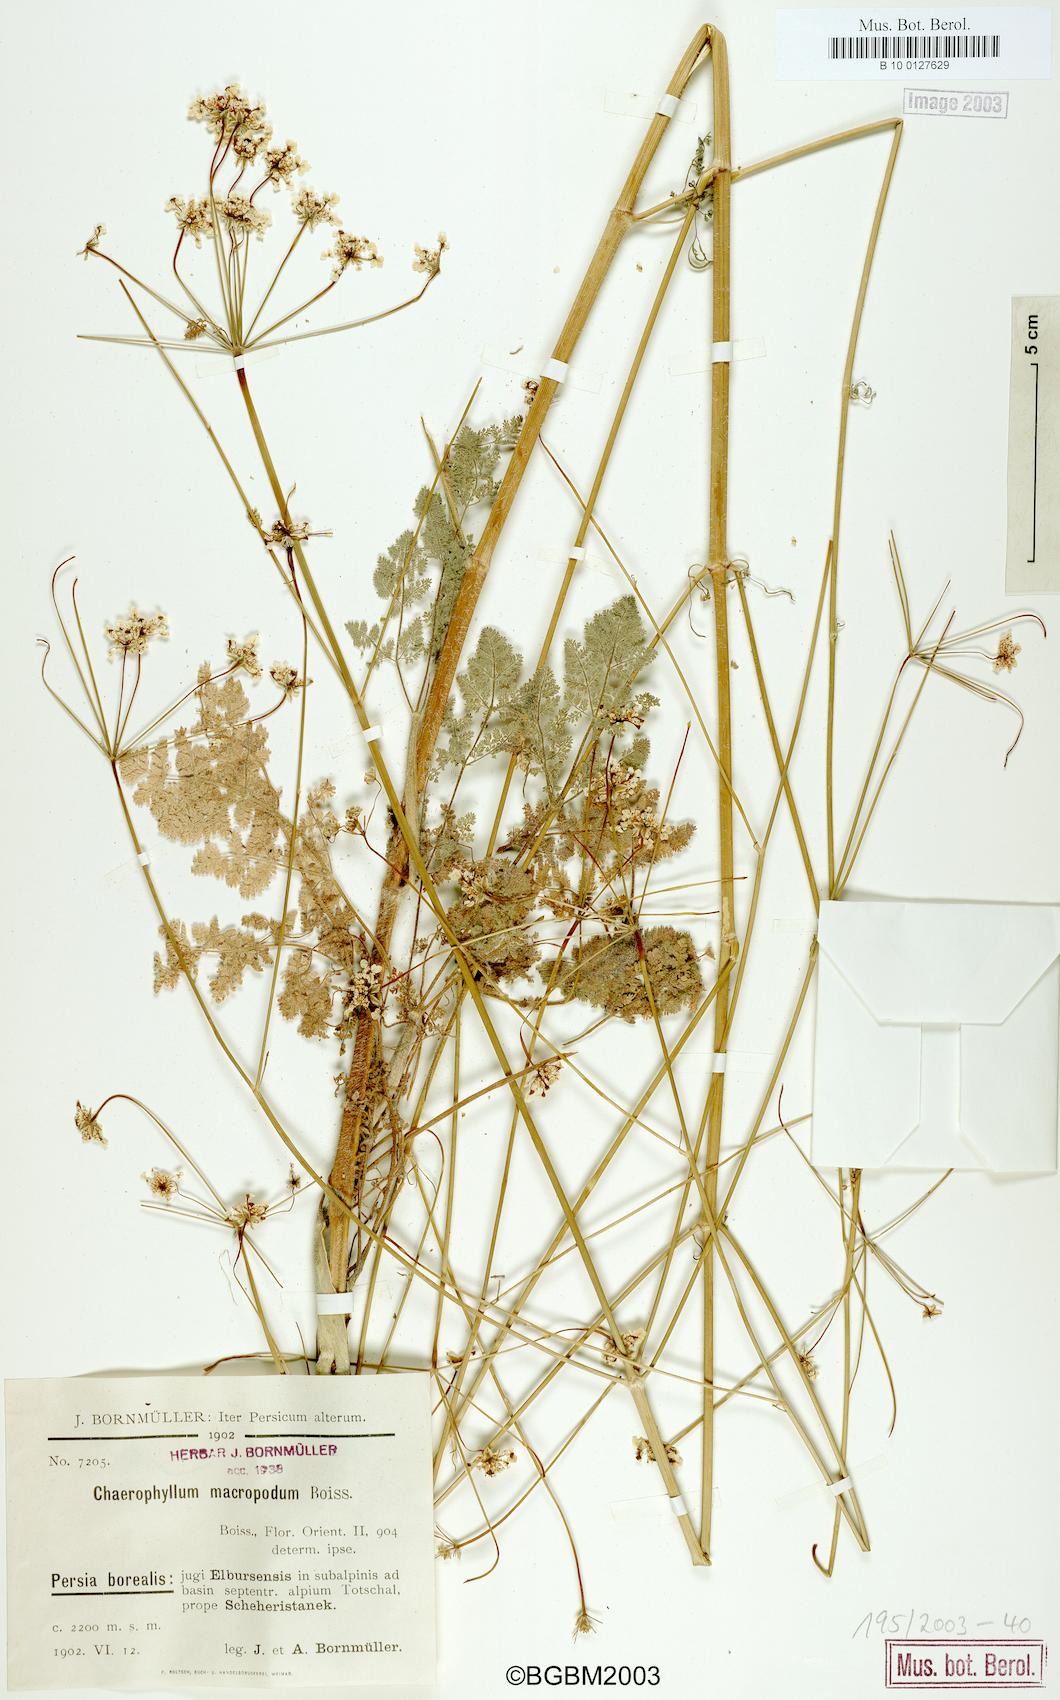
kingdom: Plantae
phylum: Tracheophyta
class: Magnoliopsida
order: Apiales
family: Apiaceae
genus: Chaerophyllum
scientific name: Chaerophyllum macropodum
